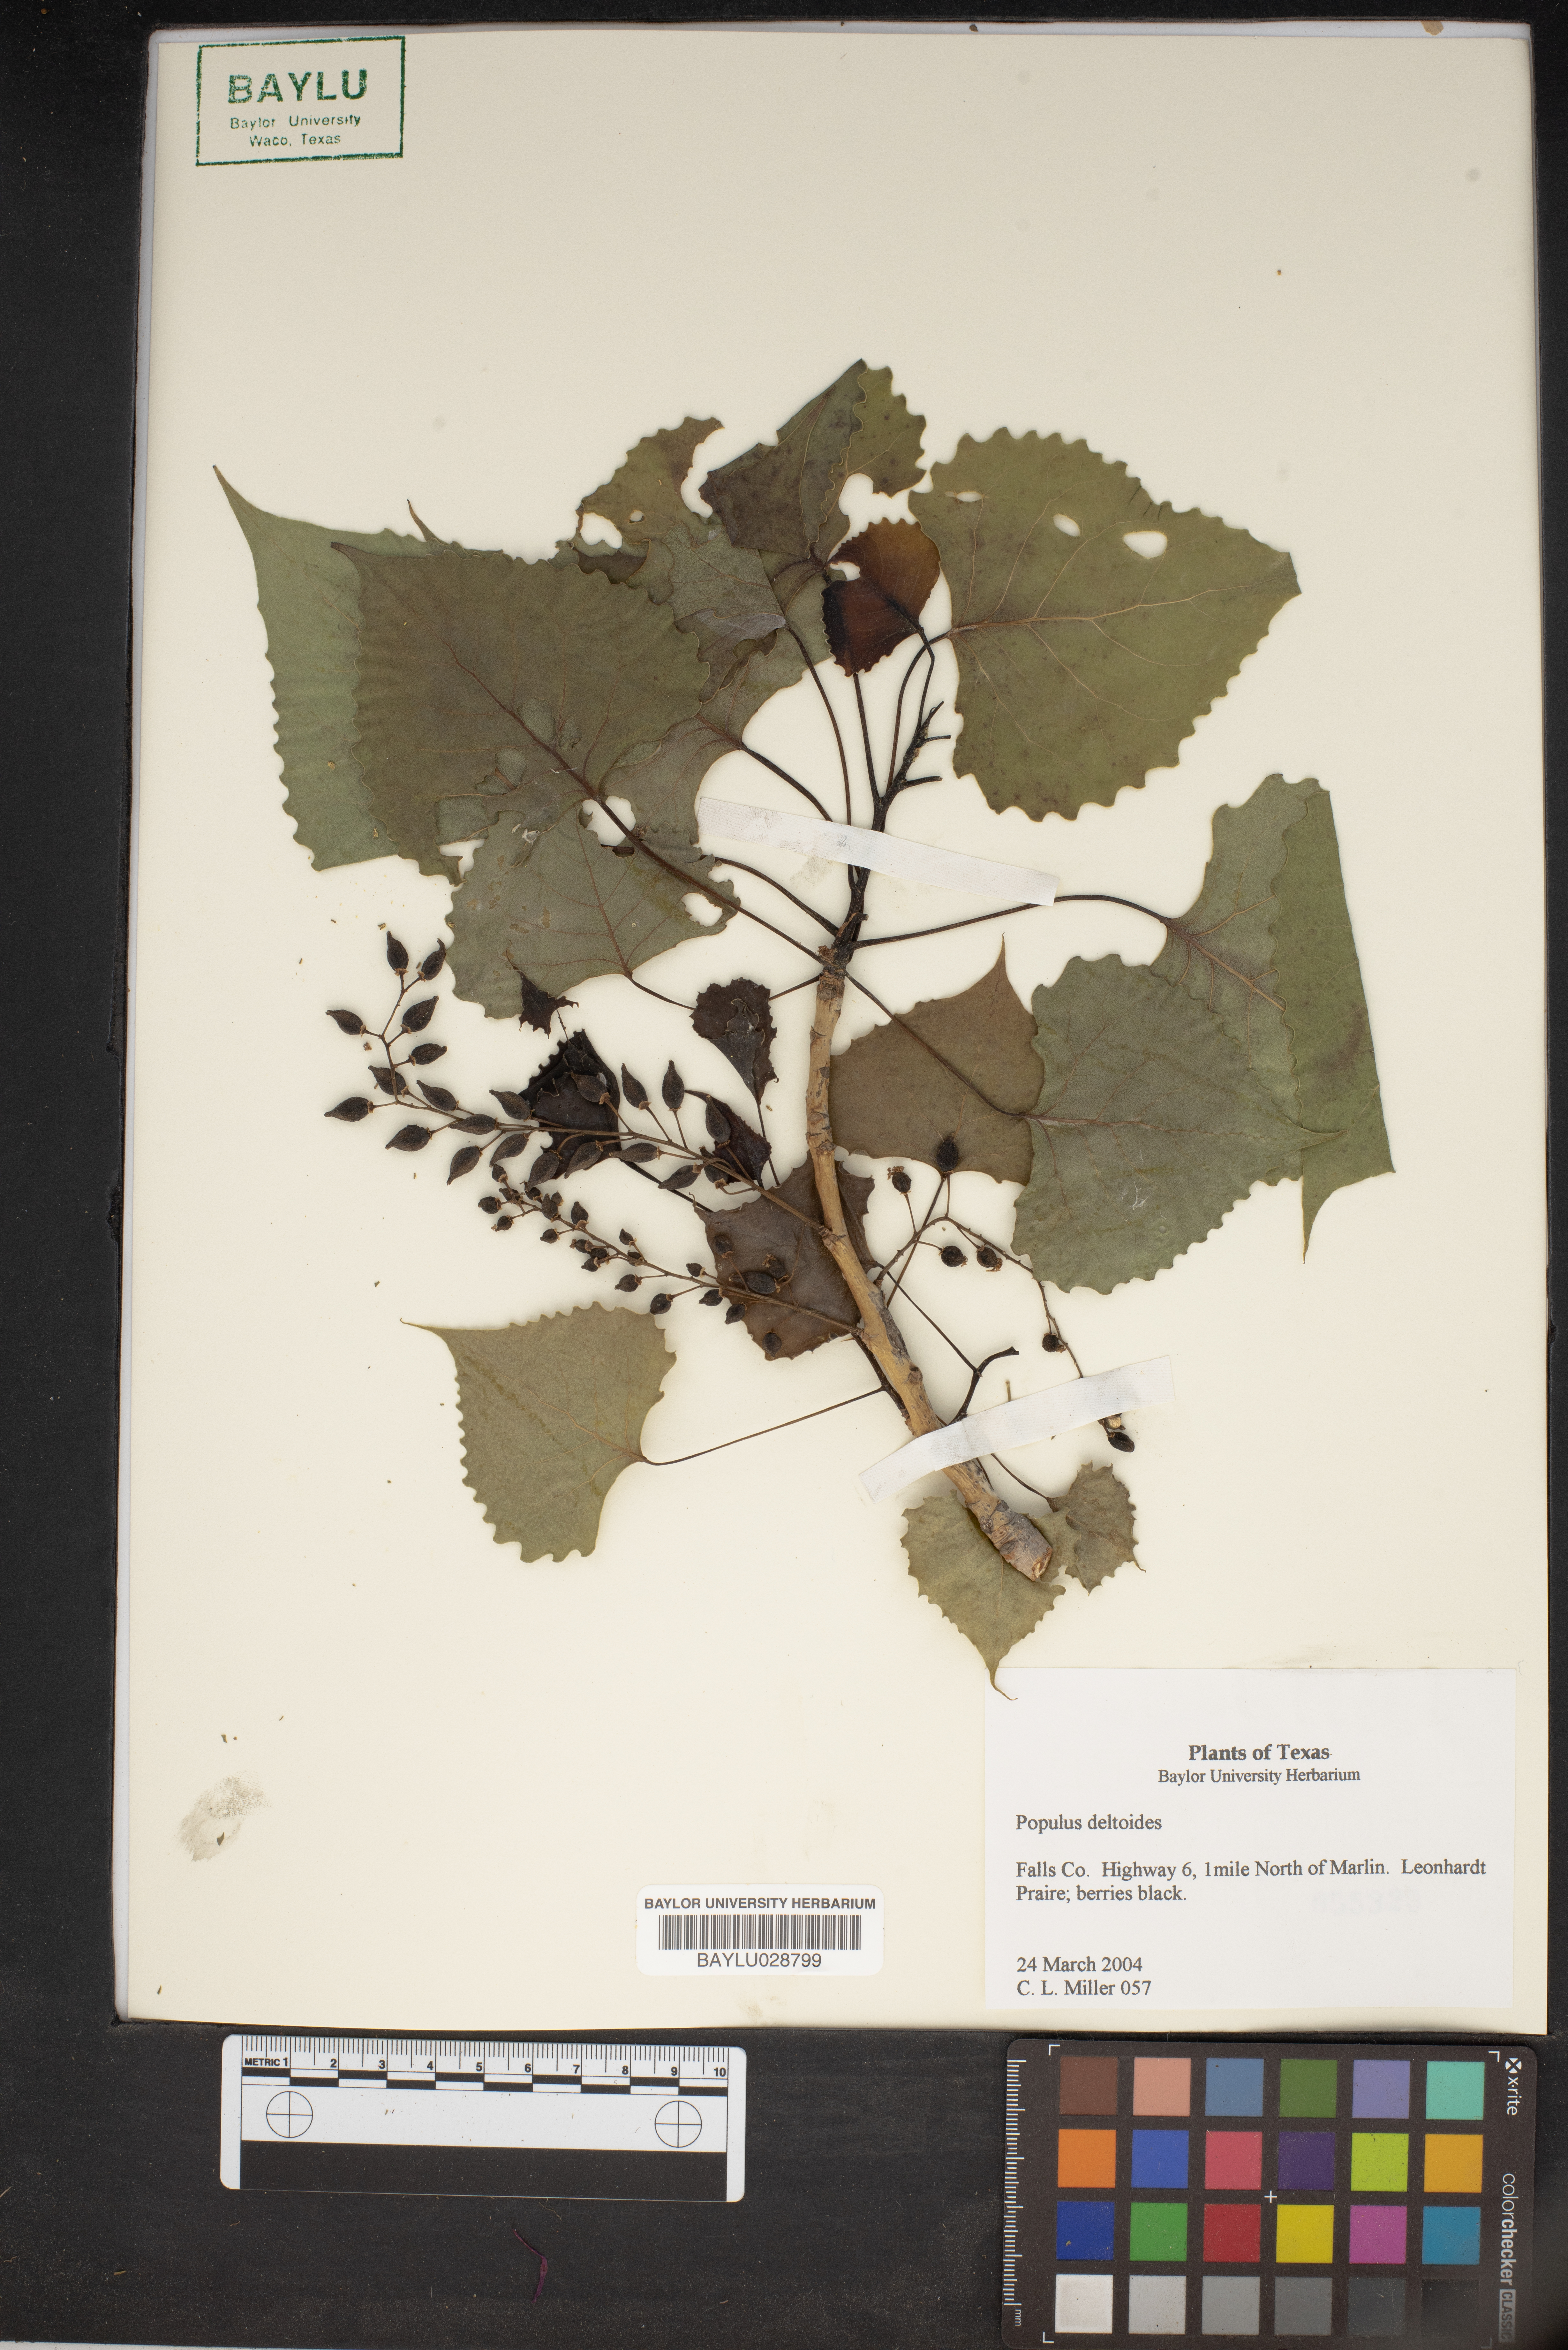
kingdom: Plantae
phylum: Tracheophyta
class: Magnoliopsida
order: Malpighiales
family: Salicaceae
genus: Populus
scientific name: Populus deltoides
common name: Eastern cottonwood
